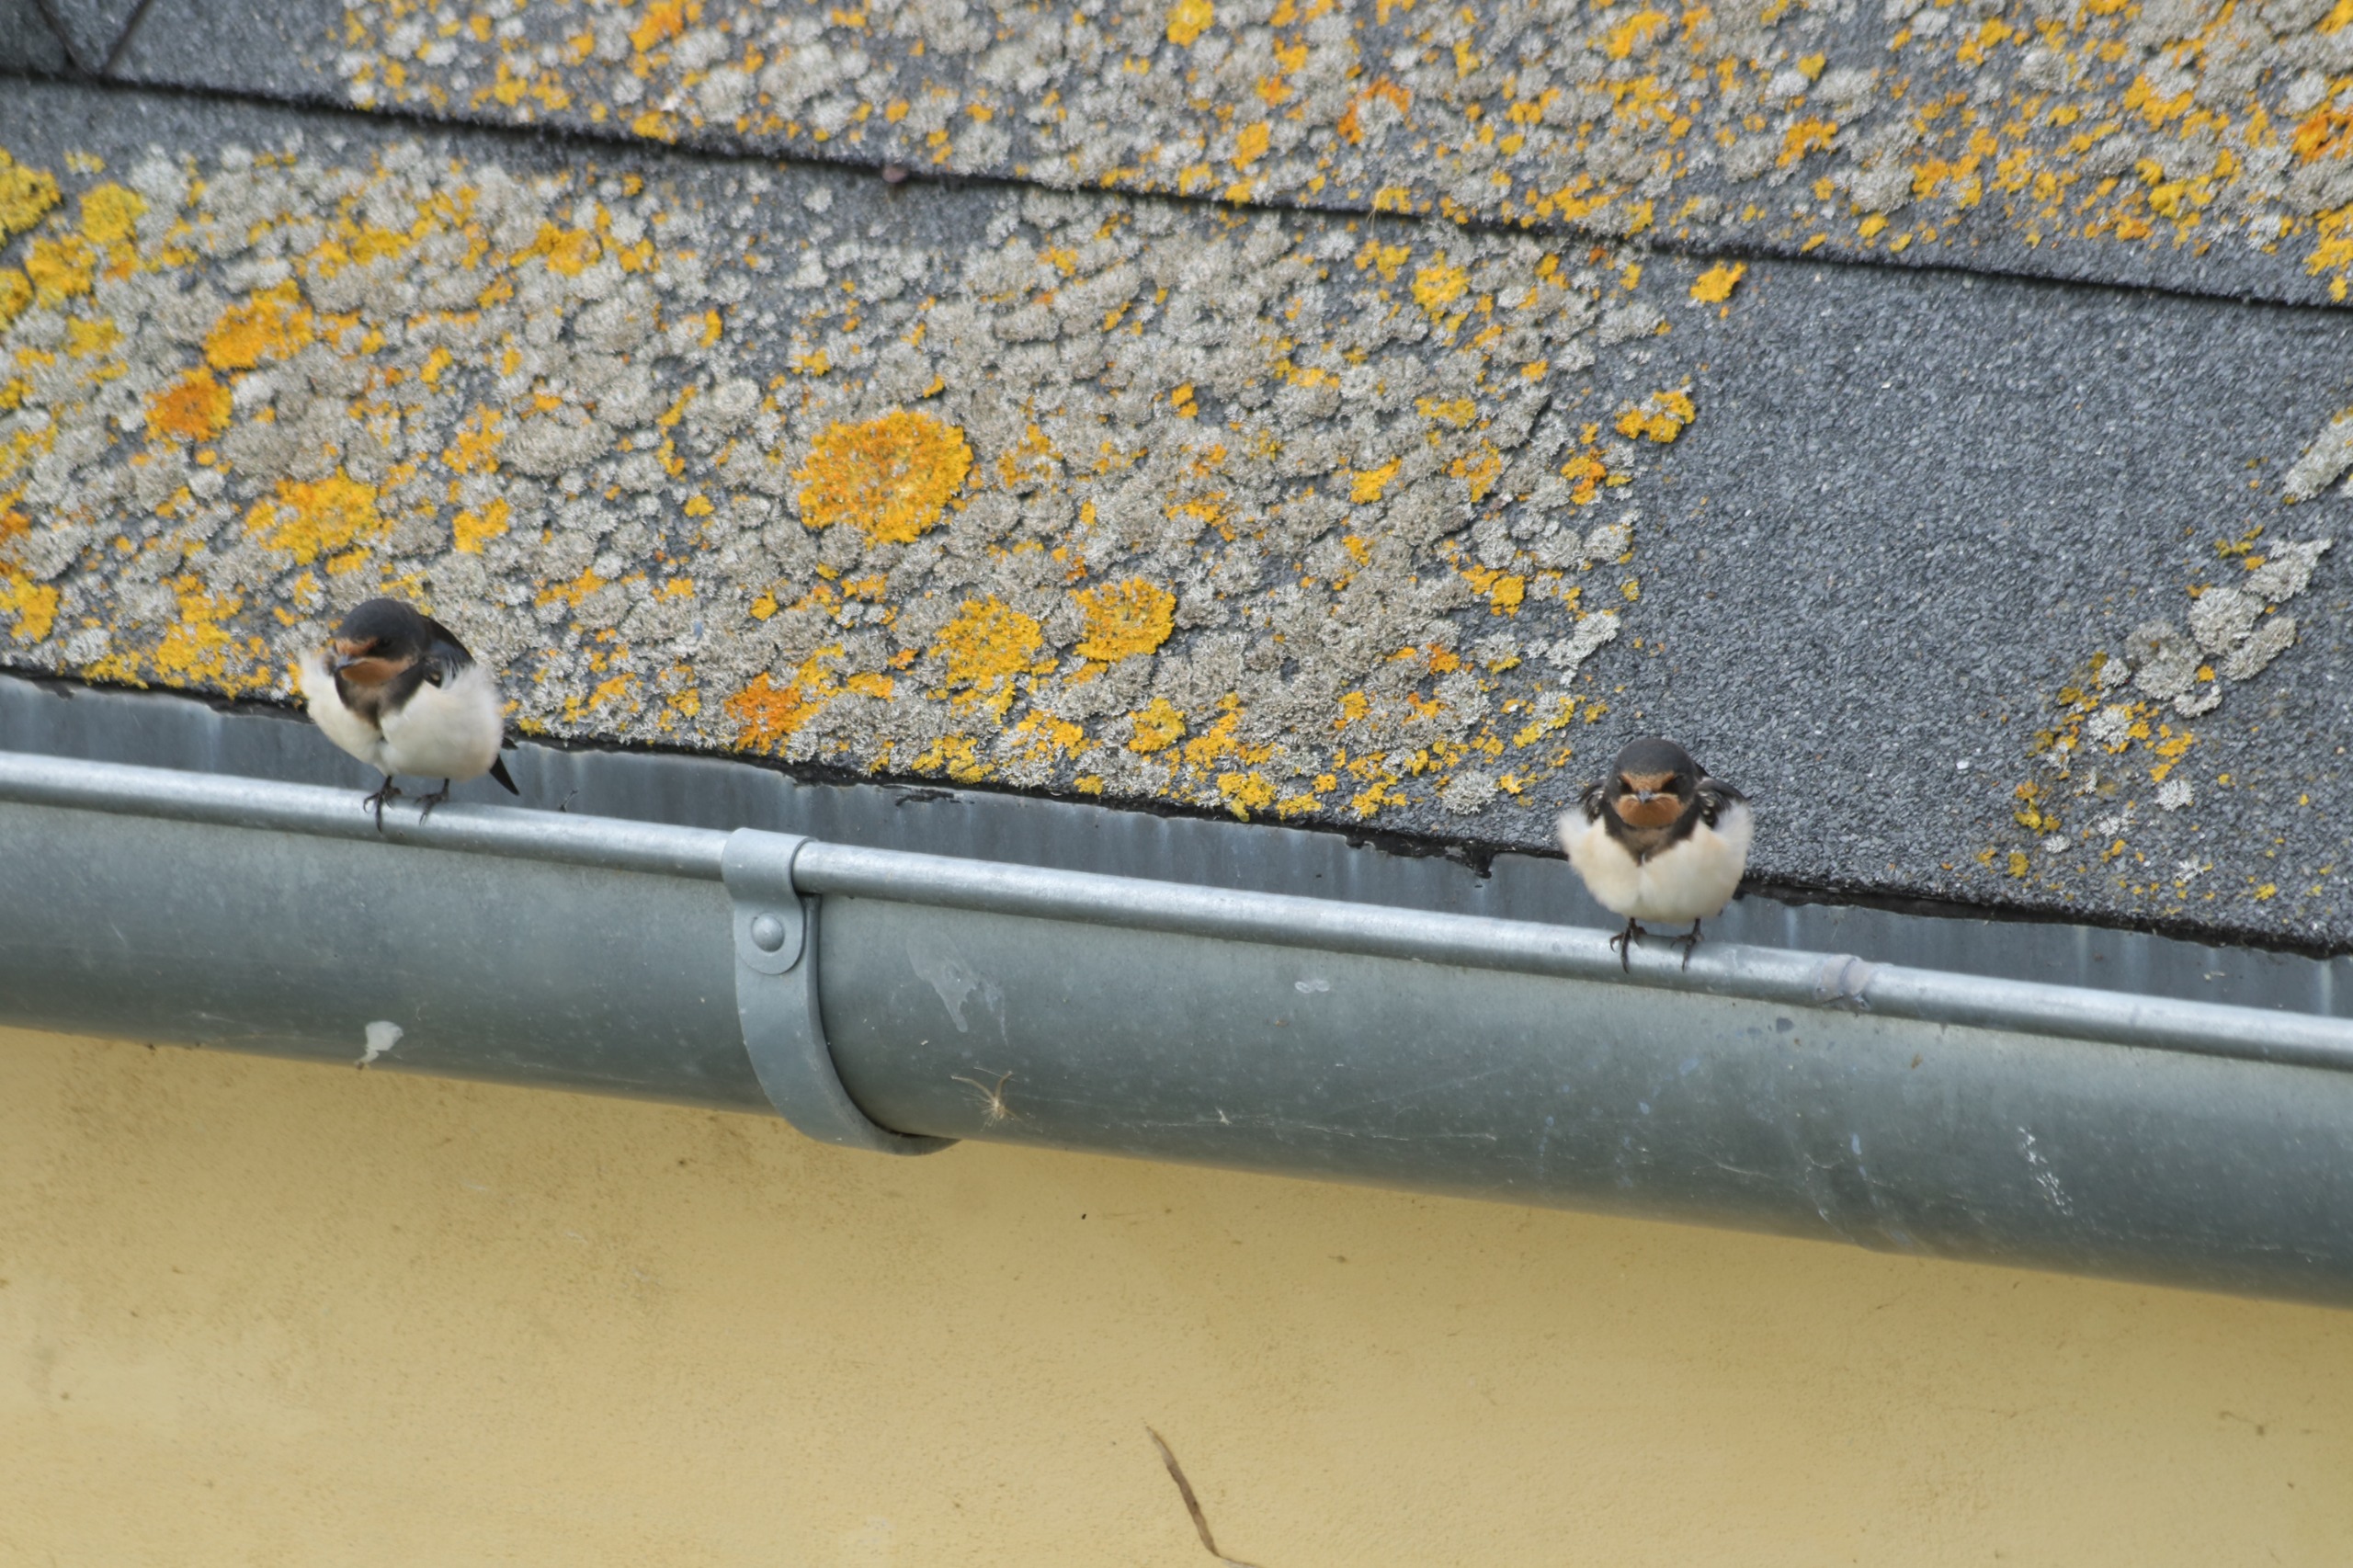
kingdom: Animalia
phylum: Chordata
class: Aves
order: Passeriformes
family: Hirundinidae
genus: Hirundo
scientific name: Hirundo rustica
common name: Landsvale
